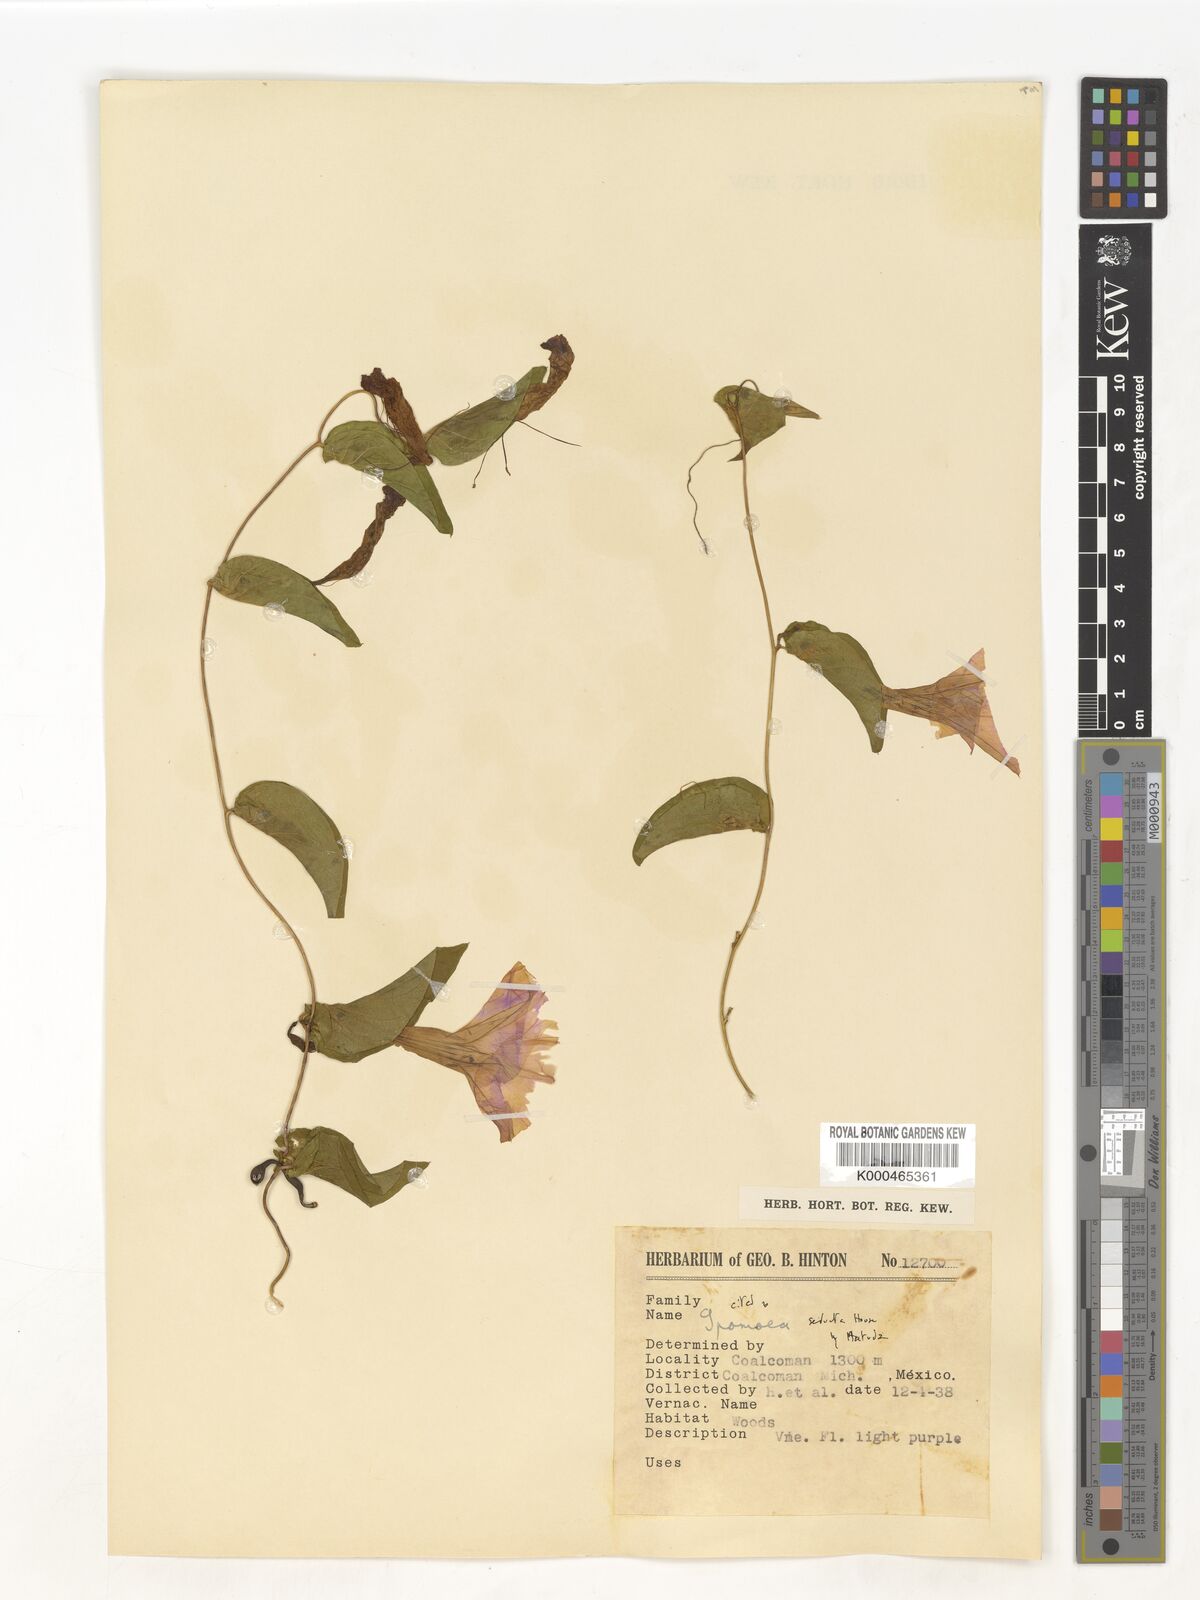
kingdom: Plantae
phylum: Tracheophyta
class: Magnoliopsida
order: Solanales
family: Convolvulaceae
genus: Ipomoea
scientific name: Ipomoea seducta
